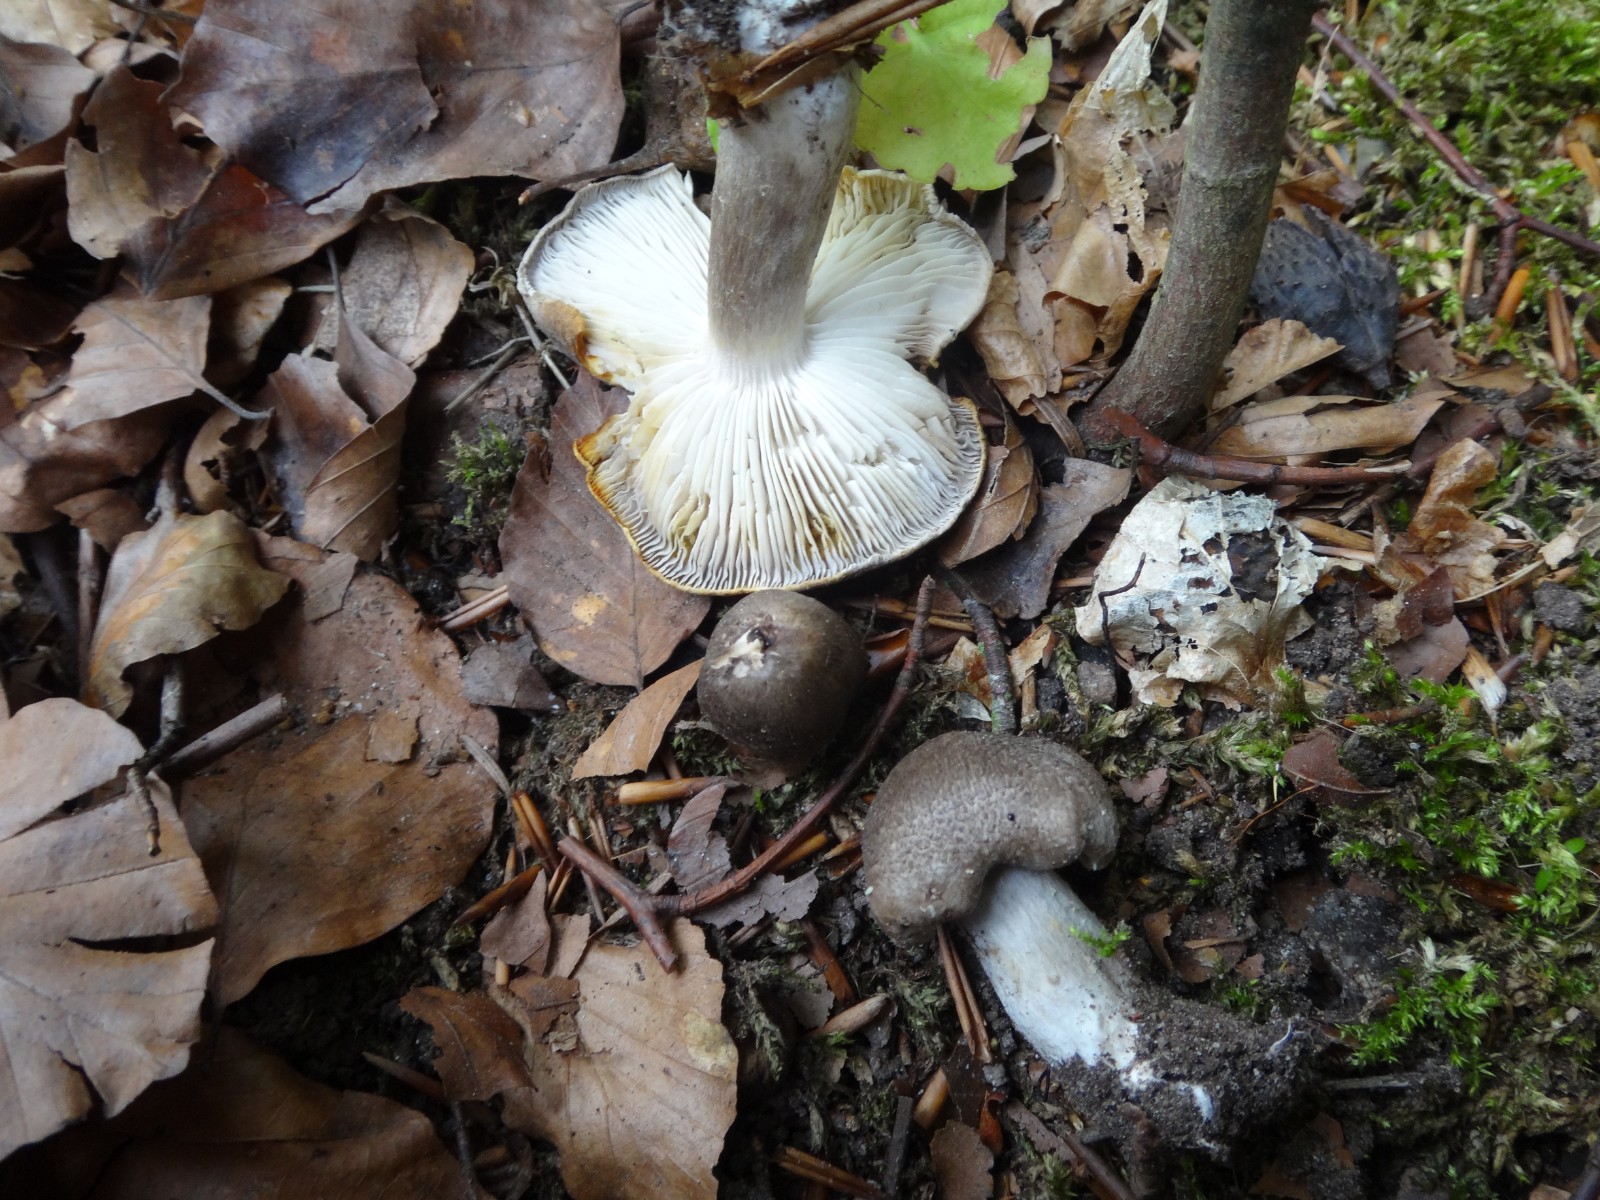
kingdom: Fungi
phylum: Basidiomycota
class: Agaricomycetes
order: Agaricales
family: Tricholomataceae
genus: Tricholoma
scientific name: Tricholoma scalpturatum
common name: gulplettet ridderhat
